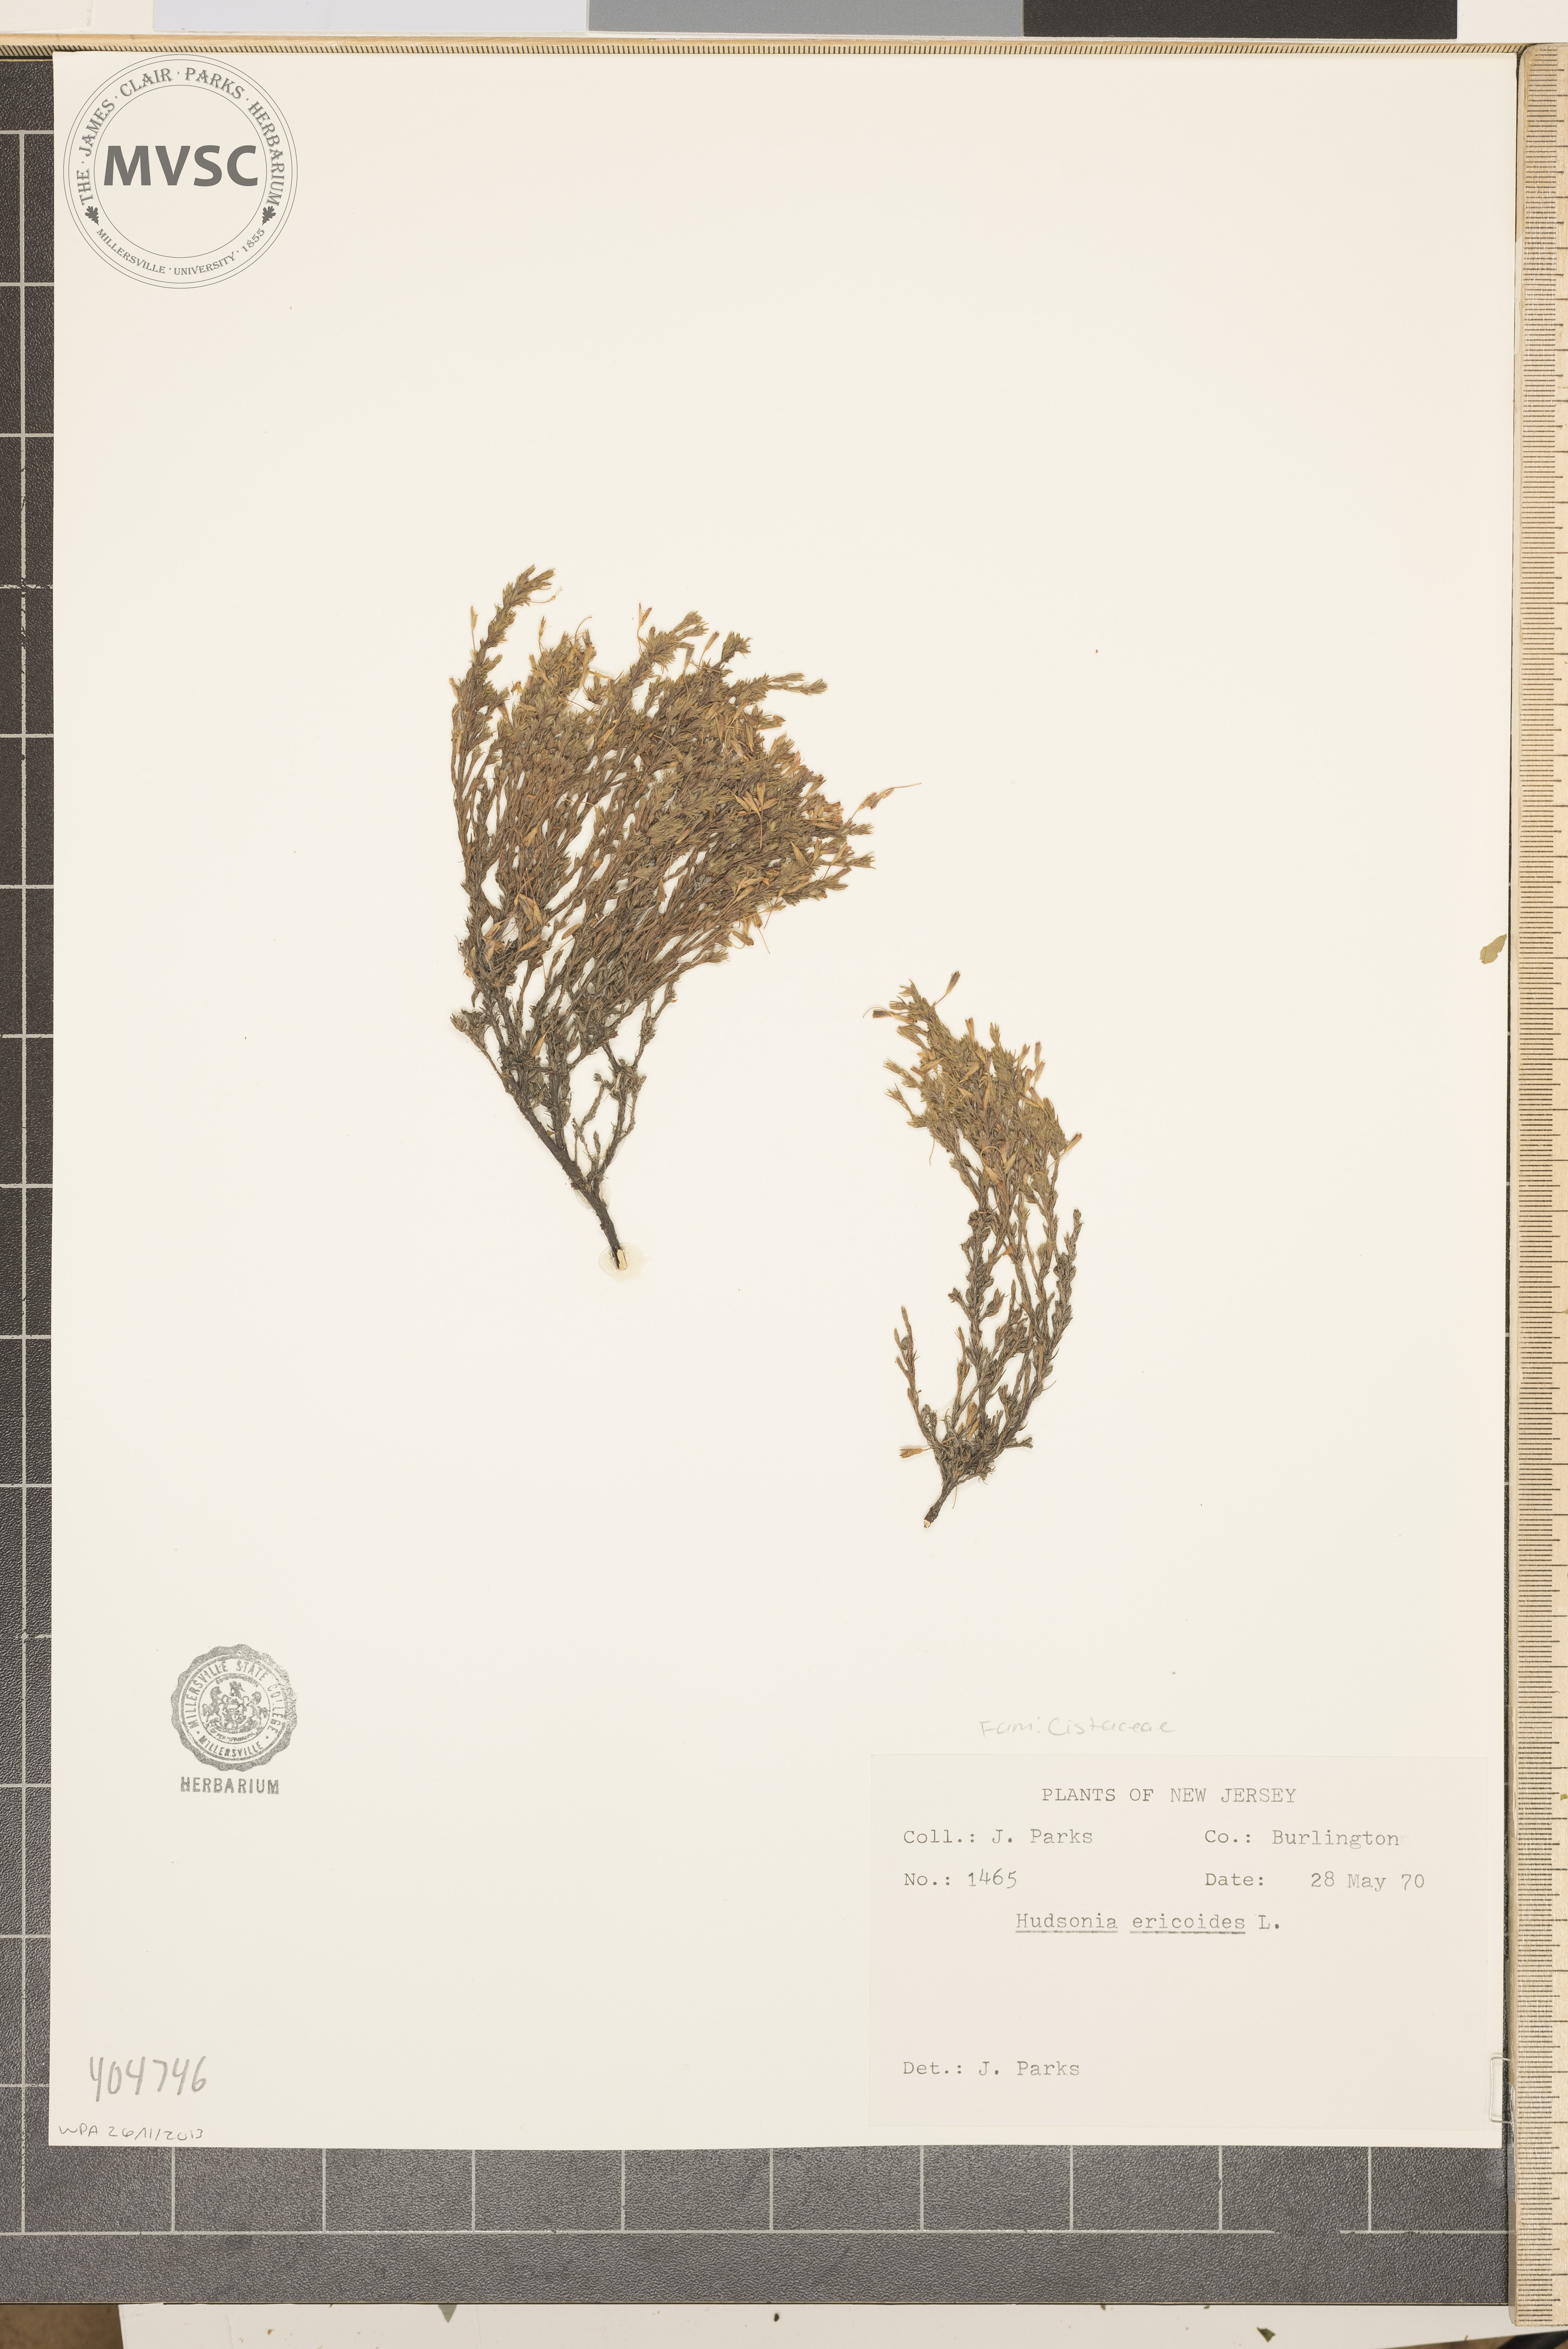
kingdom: Plantae
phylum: Tracheophyta
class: Magnoliopsida
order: Malvales
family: Cistaceae
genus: Hudsonia
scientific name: Hudsonia ericoides
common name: Golden-heather
